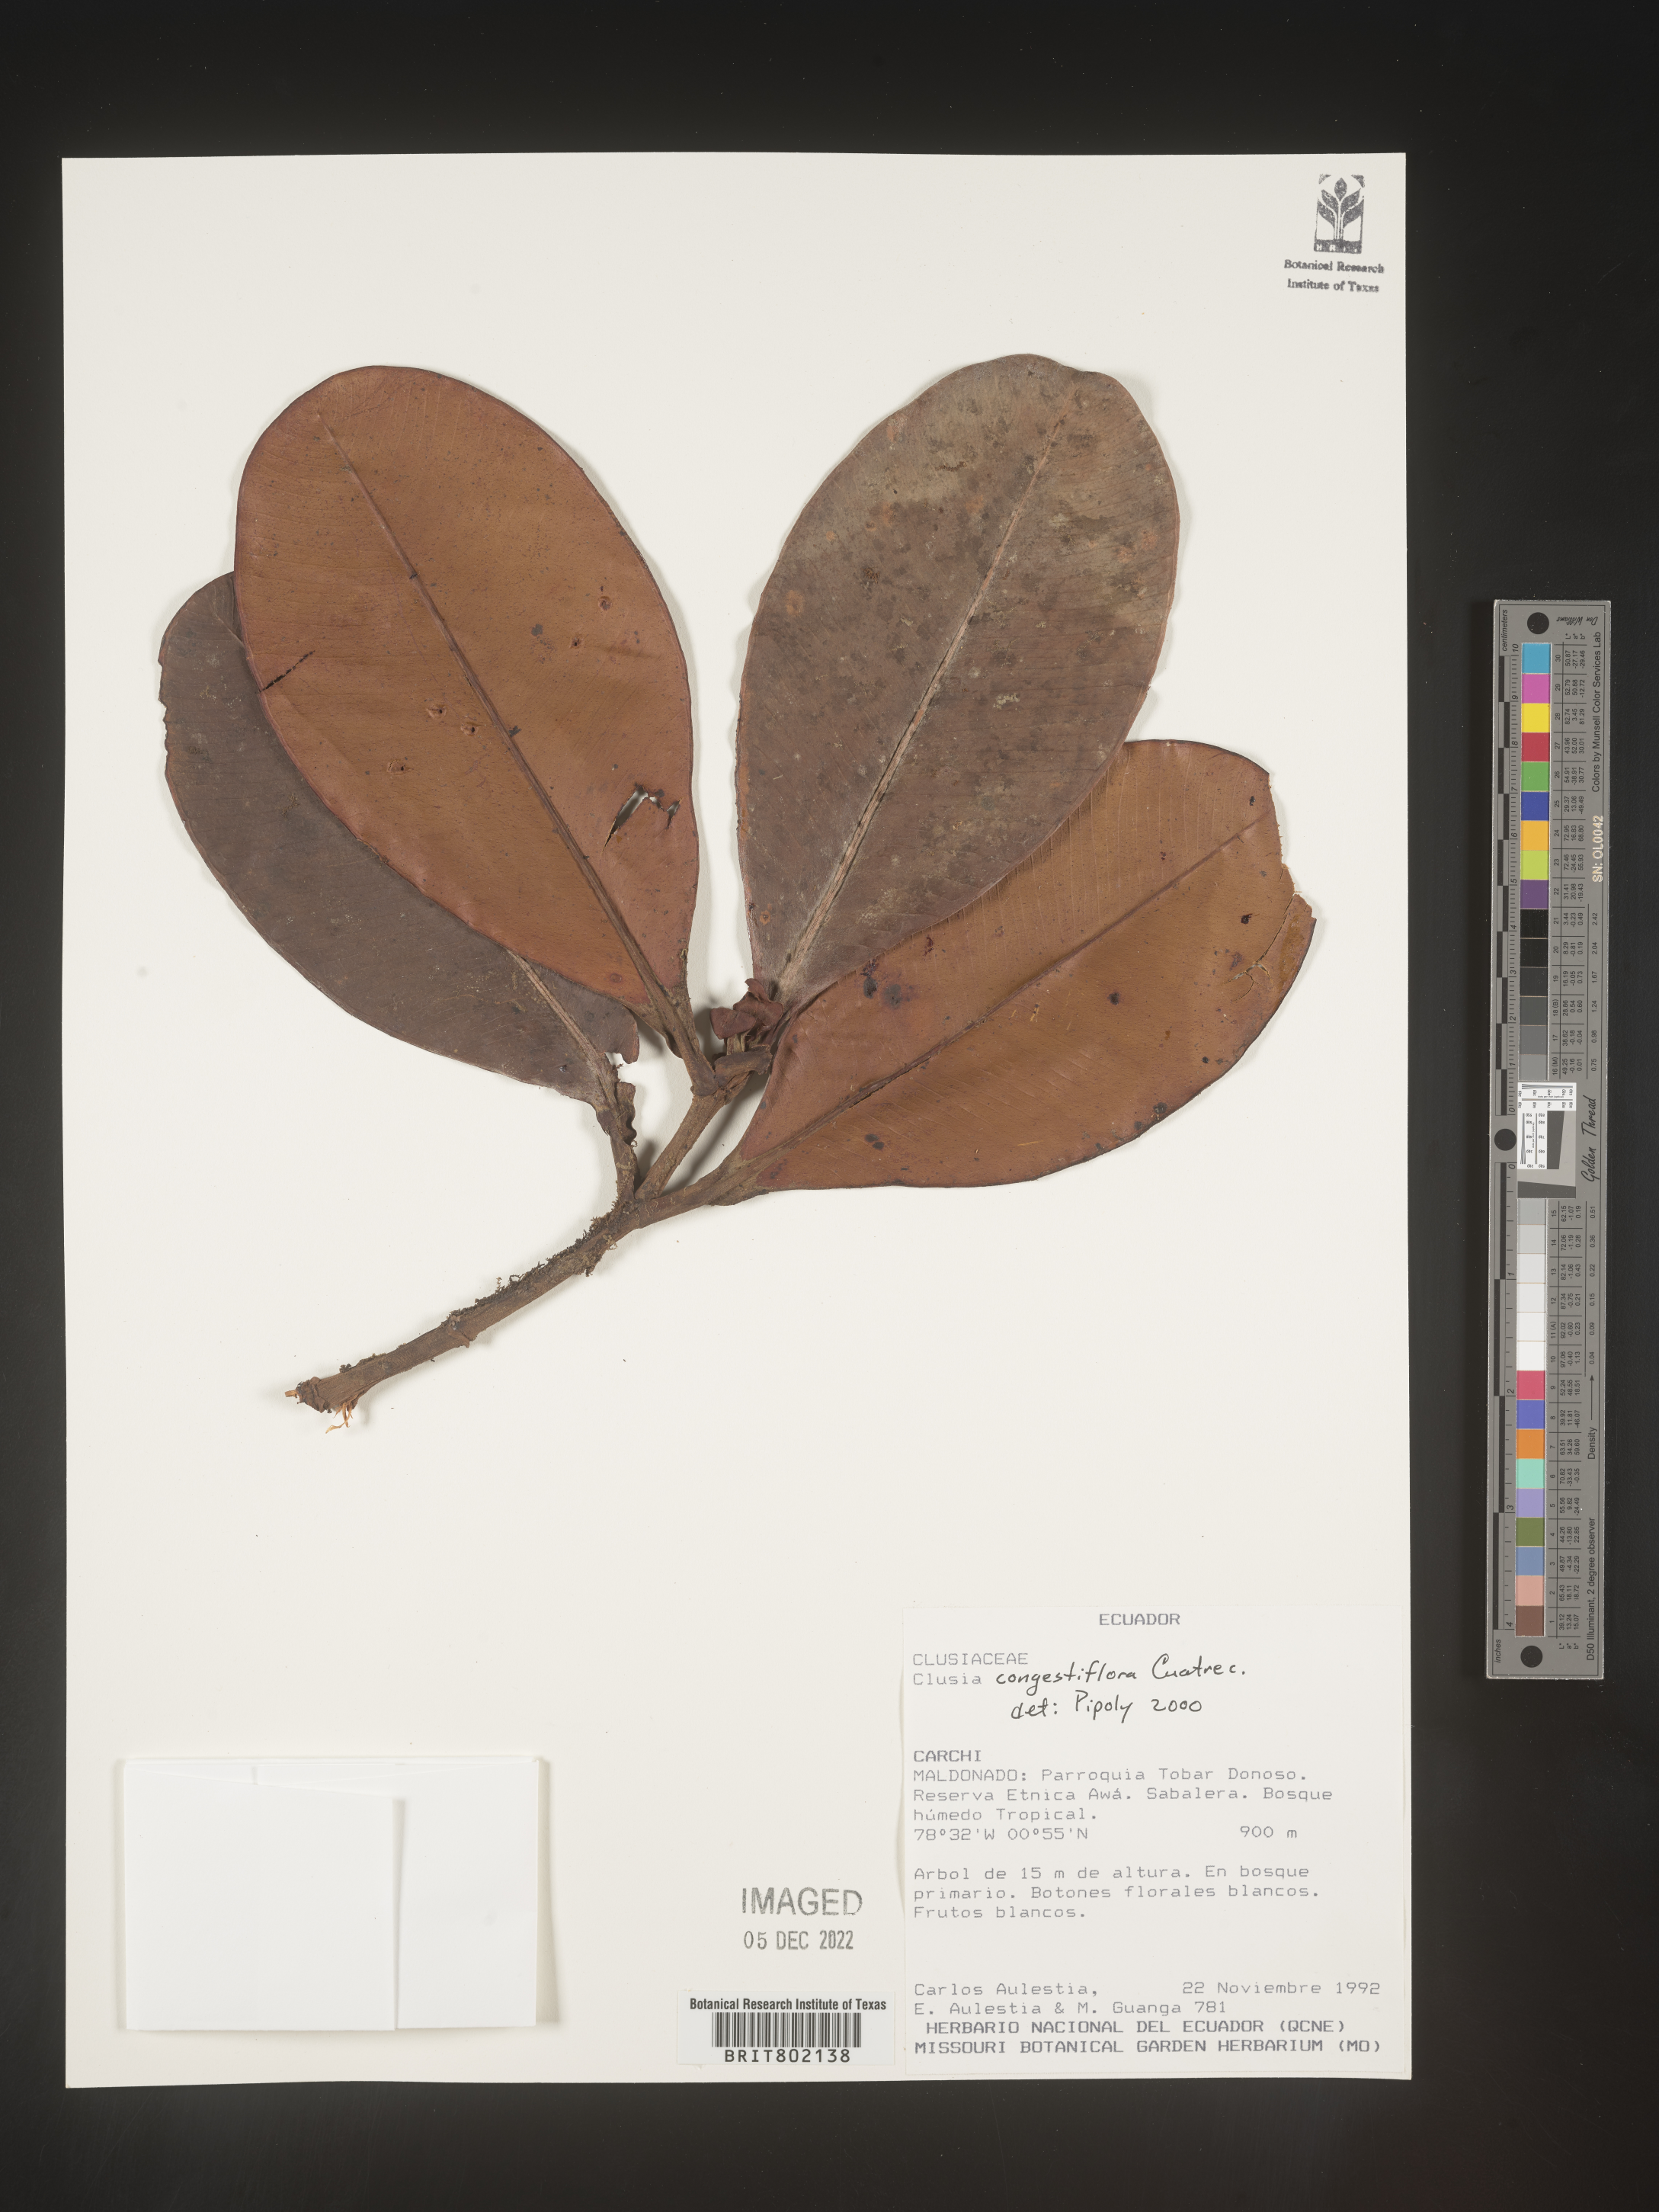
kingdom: Plantae
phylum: Tracheophyta
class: Magnoliopsida
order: Malpighiales
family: Clusiaceae
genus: Clusia
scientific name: Clusia
